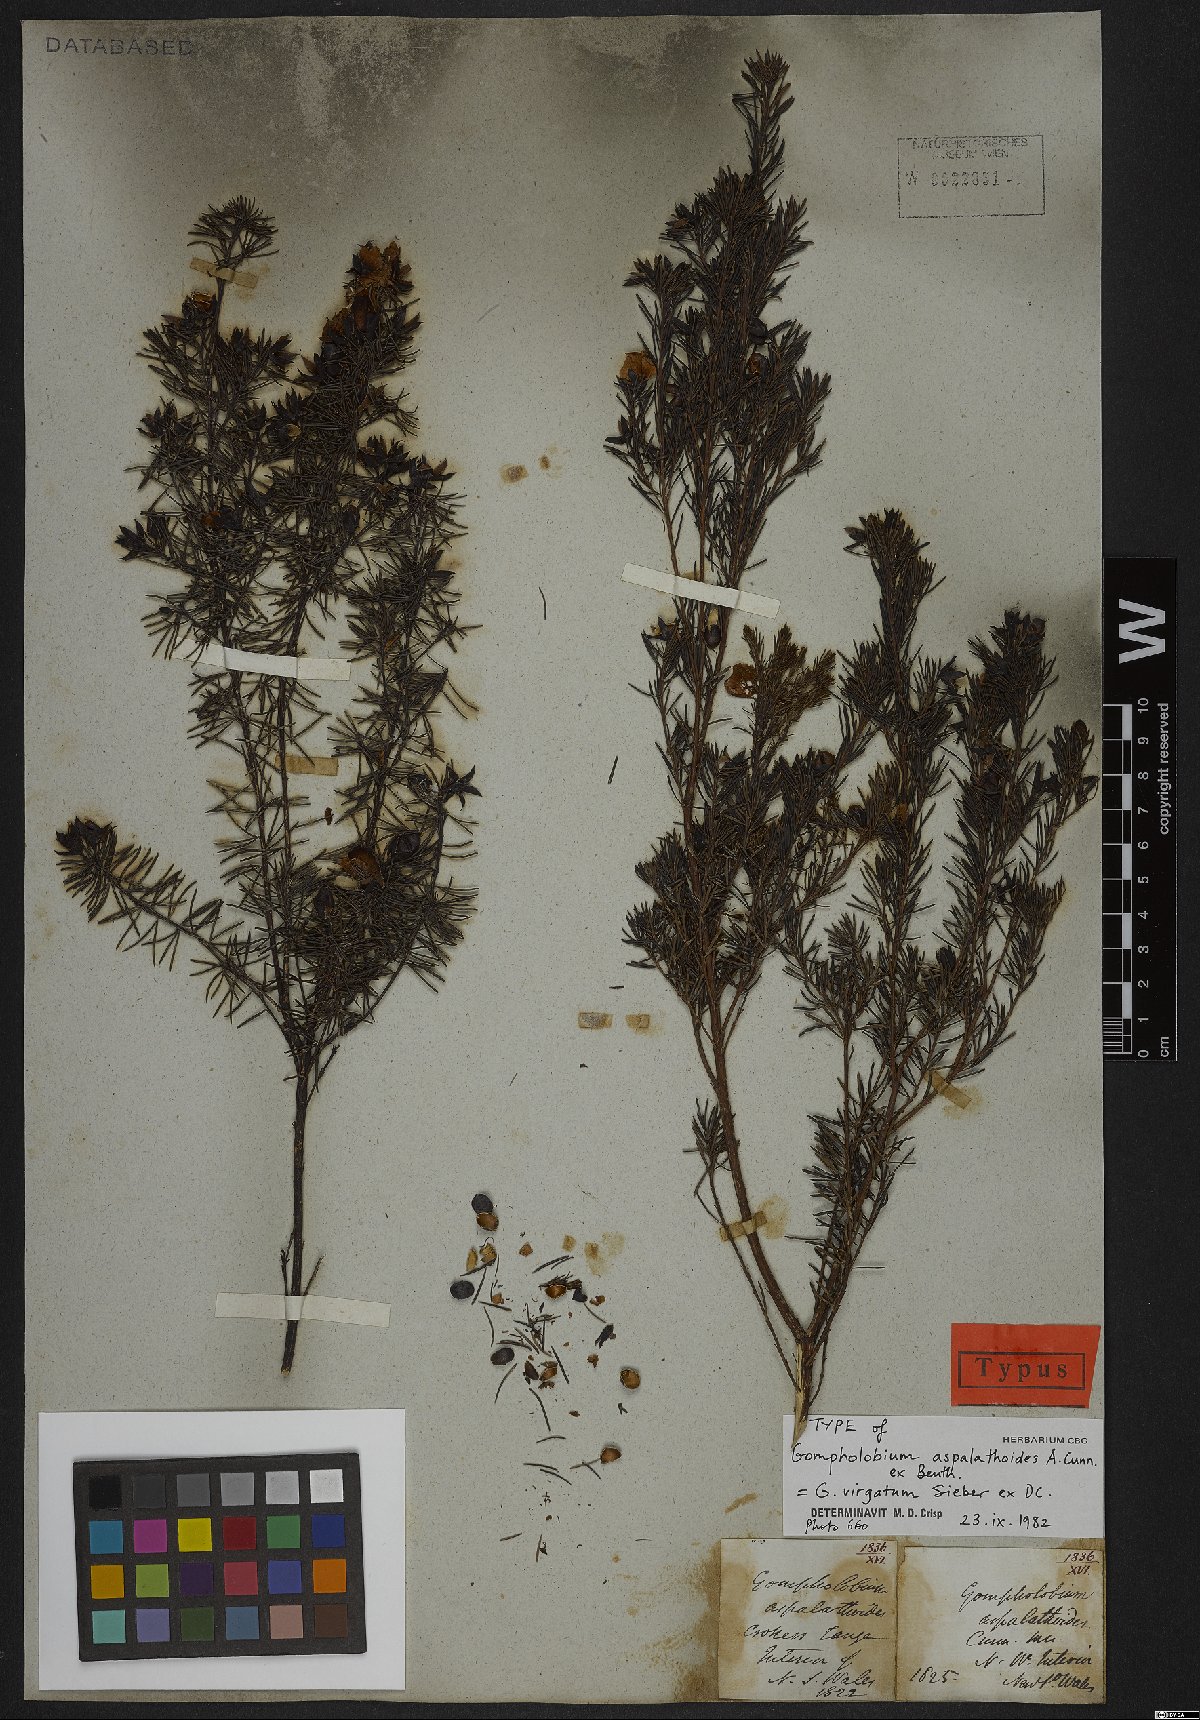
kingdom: Plantae
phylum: Tracheophyta
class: Magnoliopsida
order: Fabales
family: Fabaceae
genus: Gompholobium
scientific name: Gompholobium virgatum
